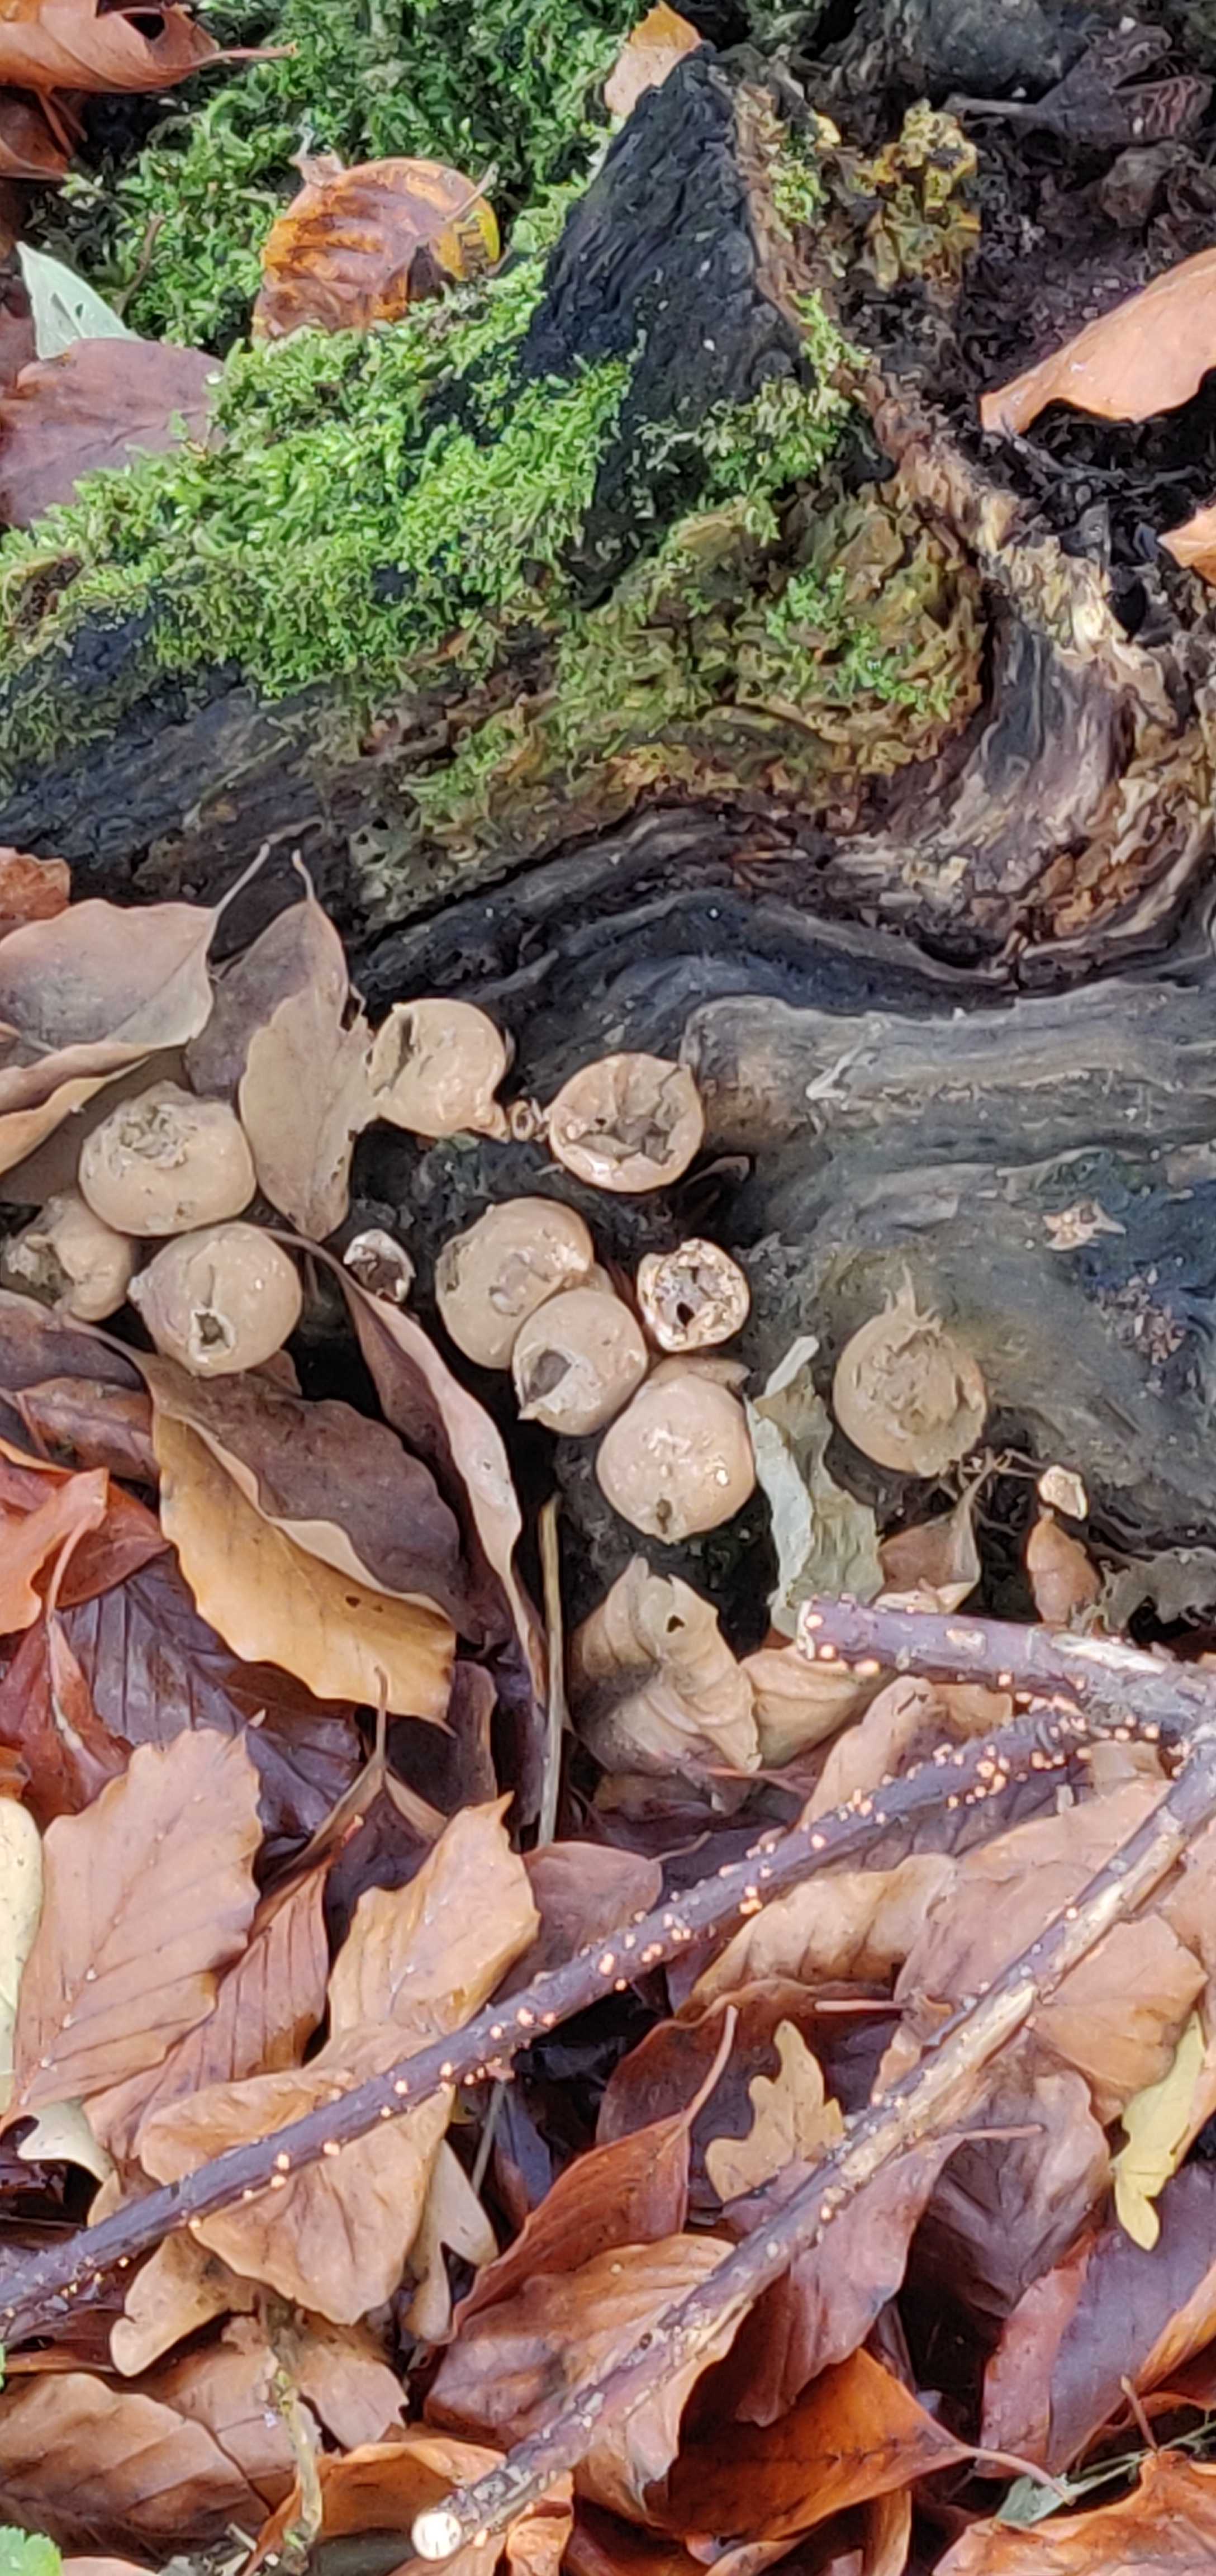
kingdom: Fungi
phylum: Basidiomycota
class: Agaricomycetes
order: Agaricales
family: Lycoperdaceae
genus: Apioperdon
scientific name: Apioperdon pyriforme
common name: pære-støvbold
